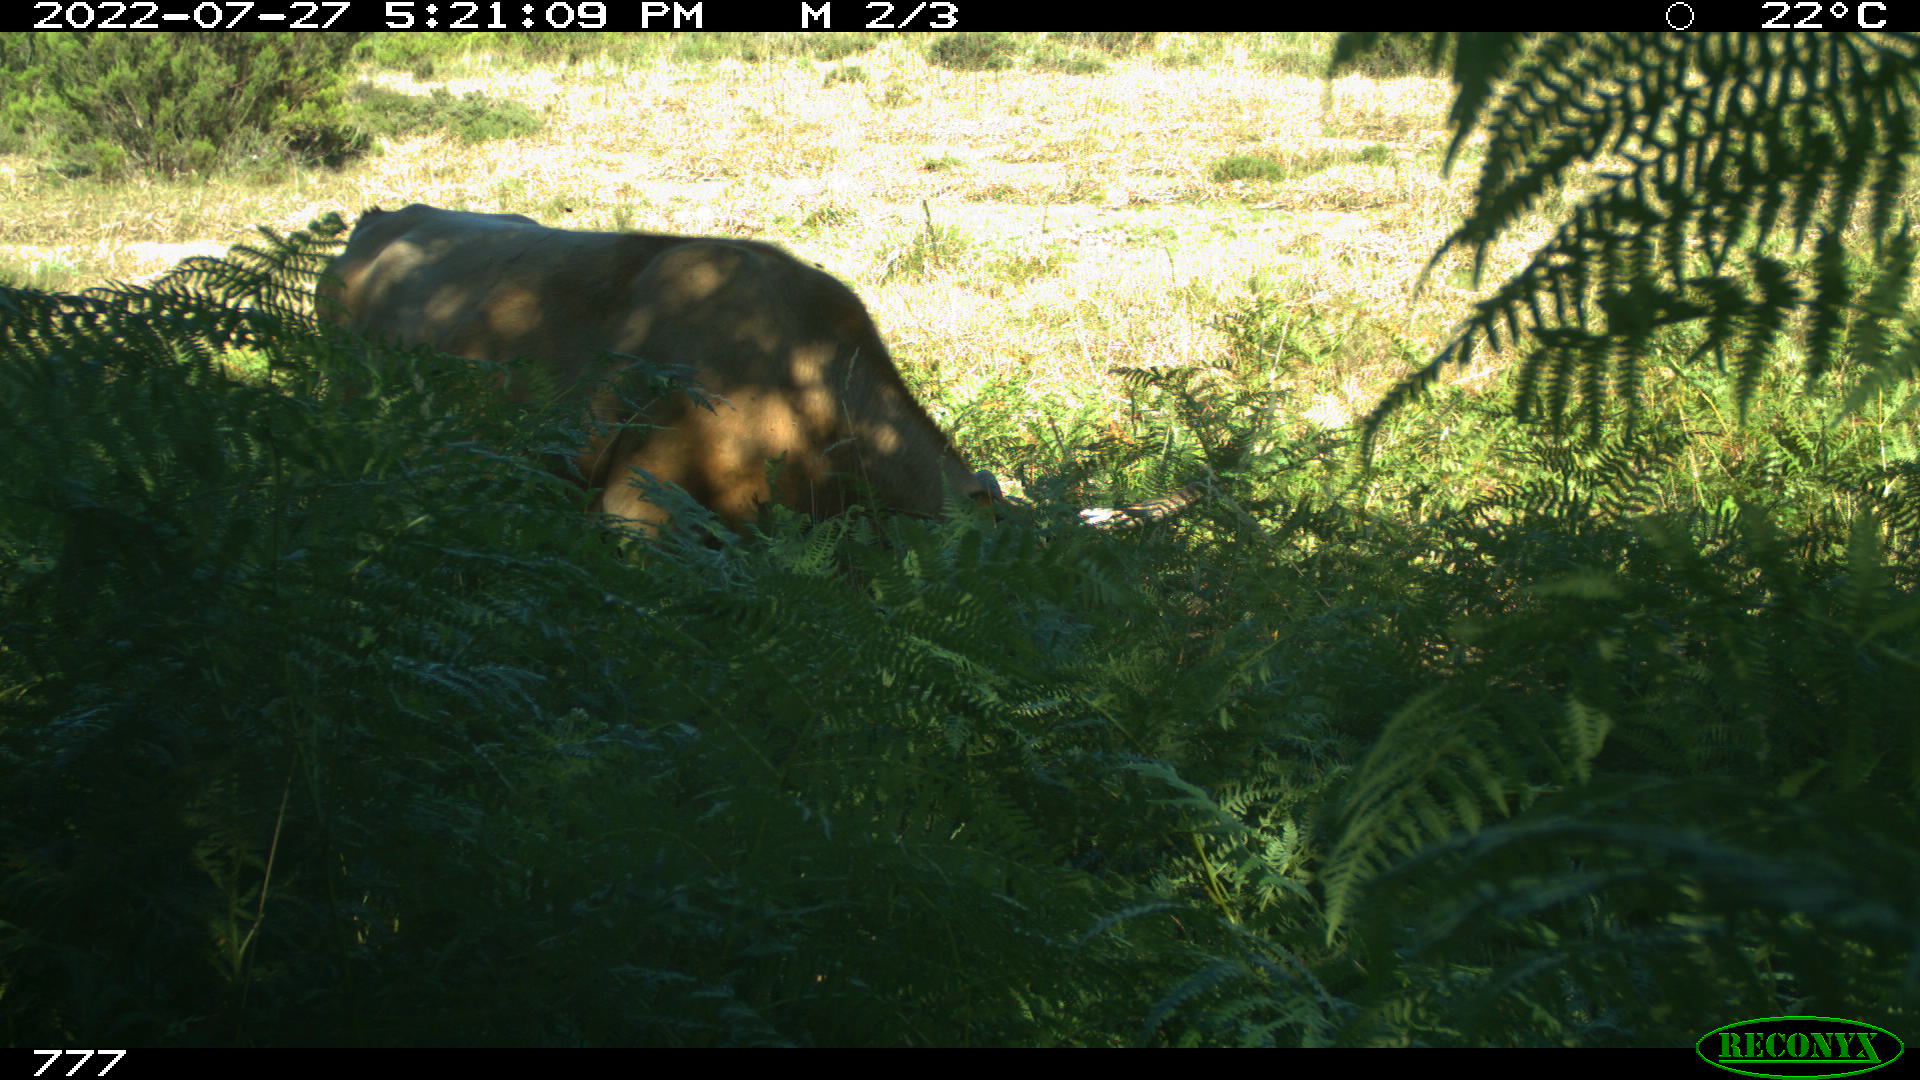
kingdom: Animalia
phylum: Chordata
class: Mammalia
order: Artiodactyla
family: Bovidae
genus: Bos
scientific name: Bos taurus
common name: Domesticated cattle
